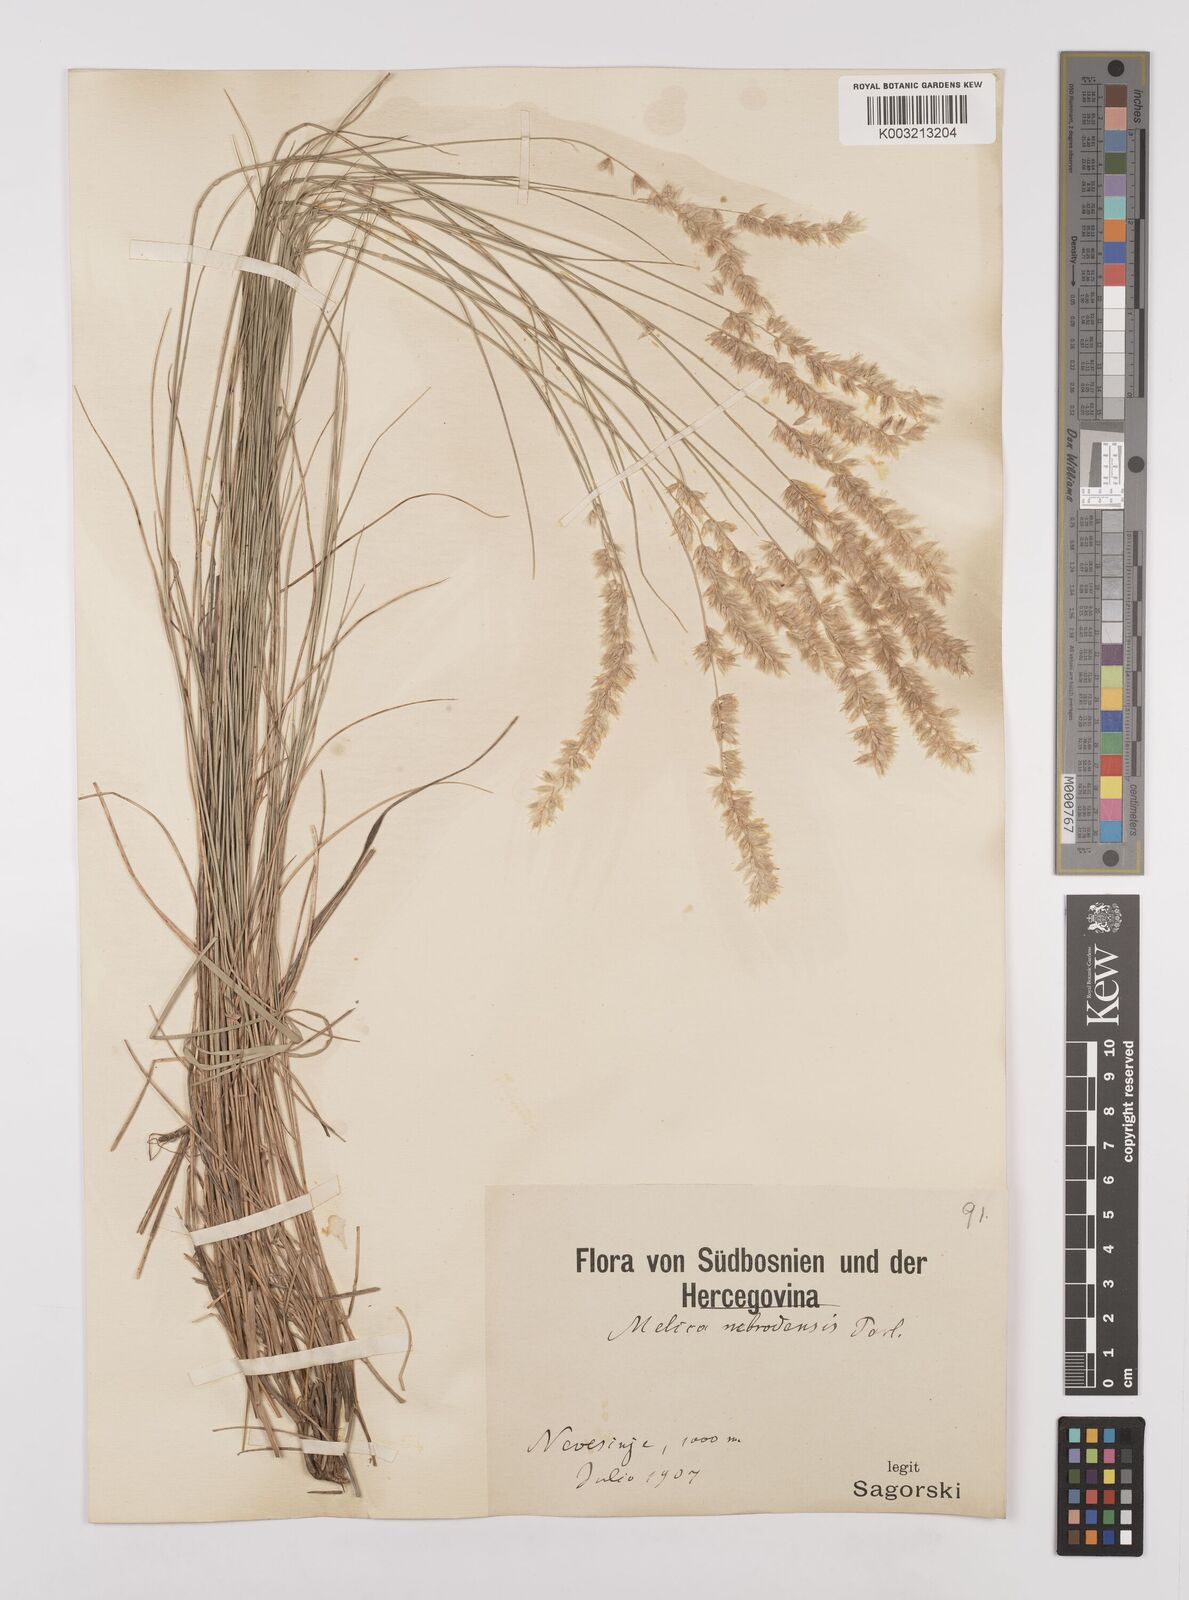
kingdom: Plantae
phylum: Tracheophyta
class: Liliopsida
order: Poales
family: Poaceae
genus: Melica
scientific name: Melica ciliata
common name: Hairy melicgrass
